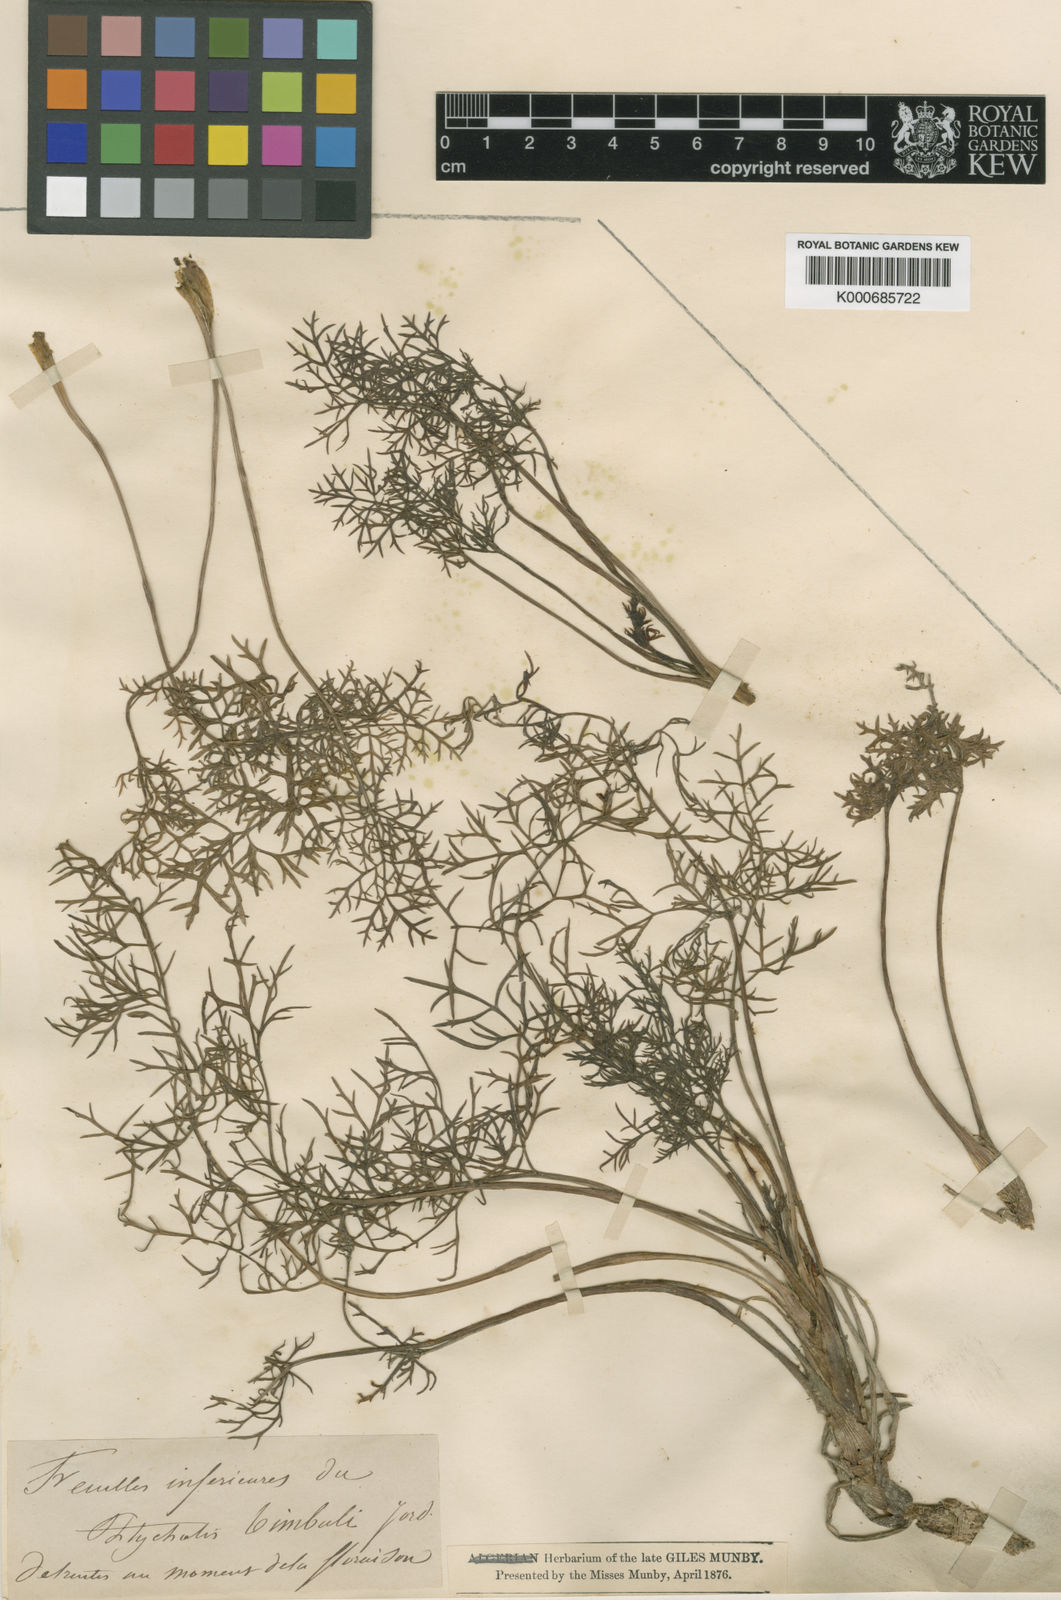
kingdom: Plantae
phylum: Tracheophyta
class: Magnoliopsida
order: Apiales
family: Apiaceae
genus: Ptychotis
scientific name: Ptychotis
